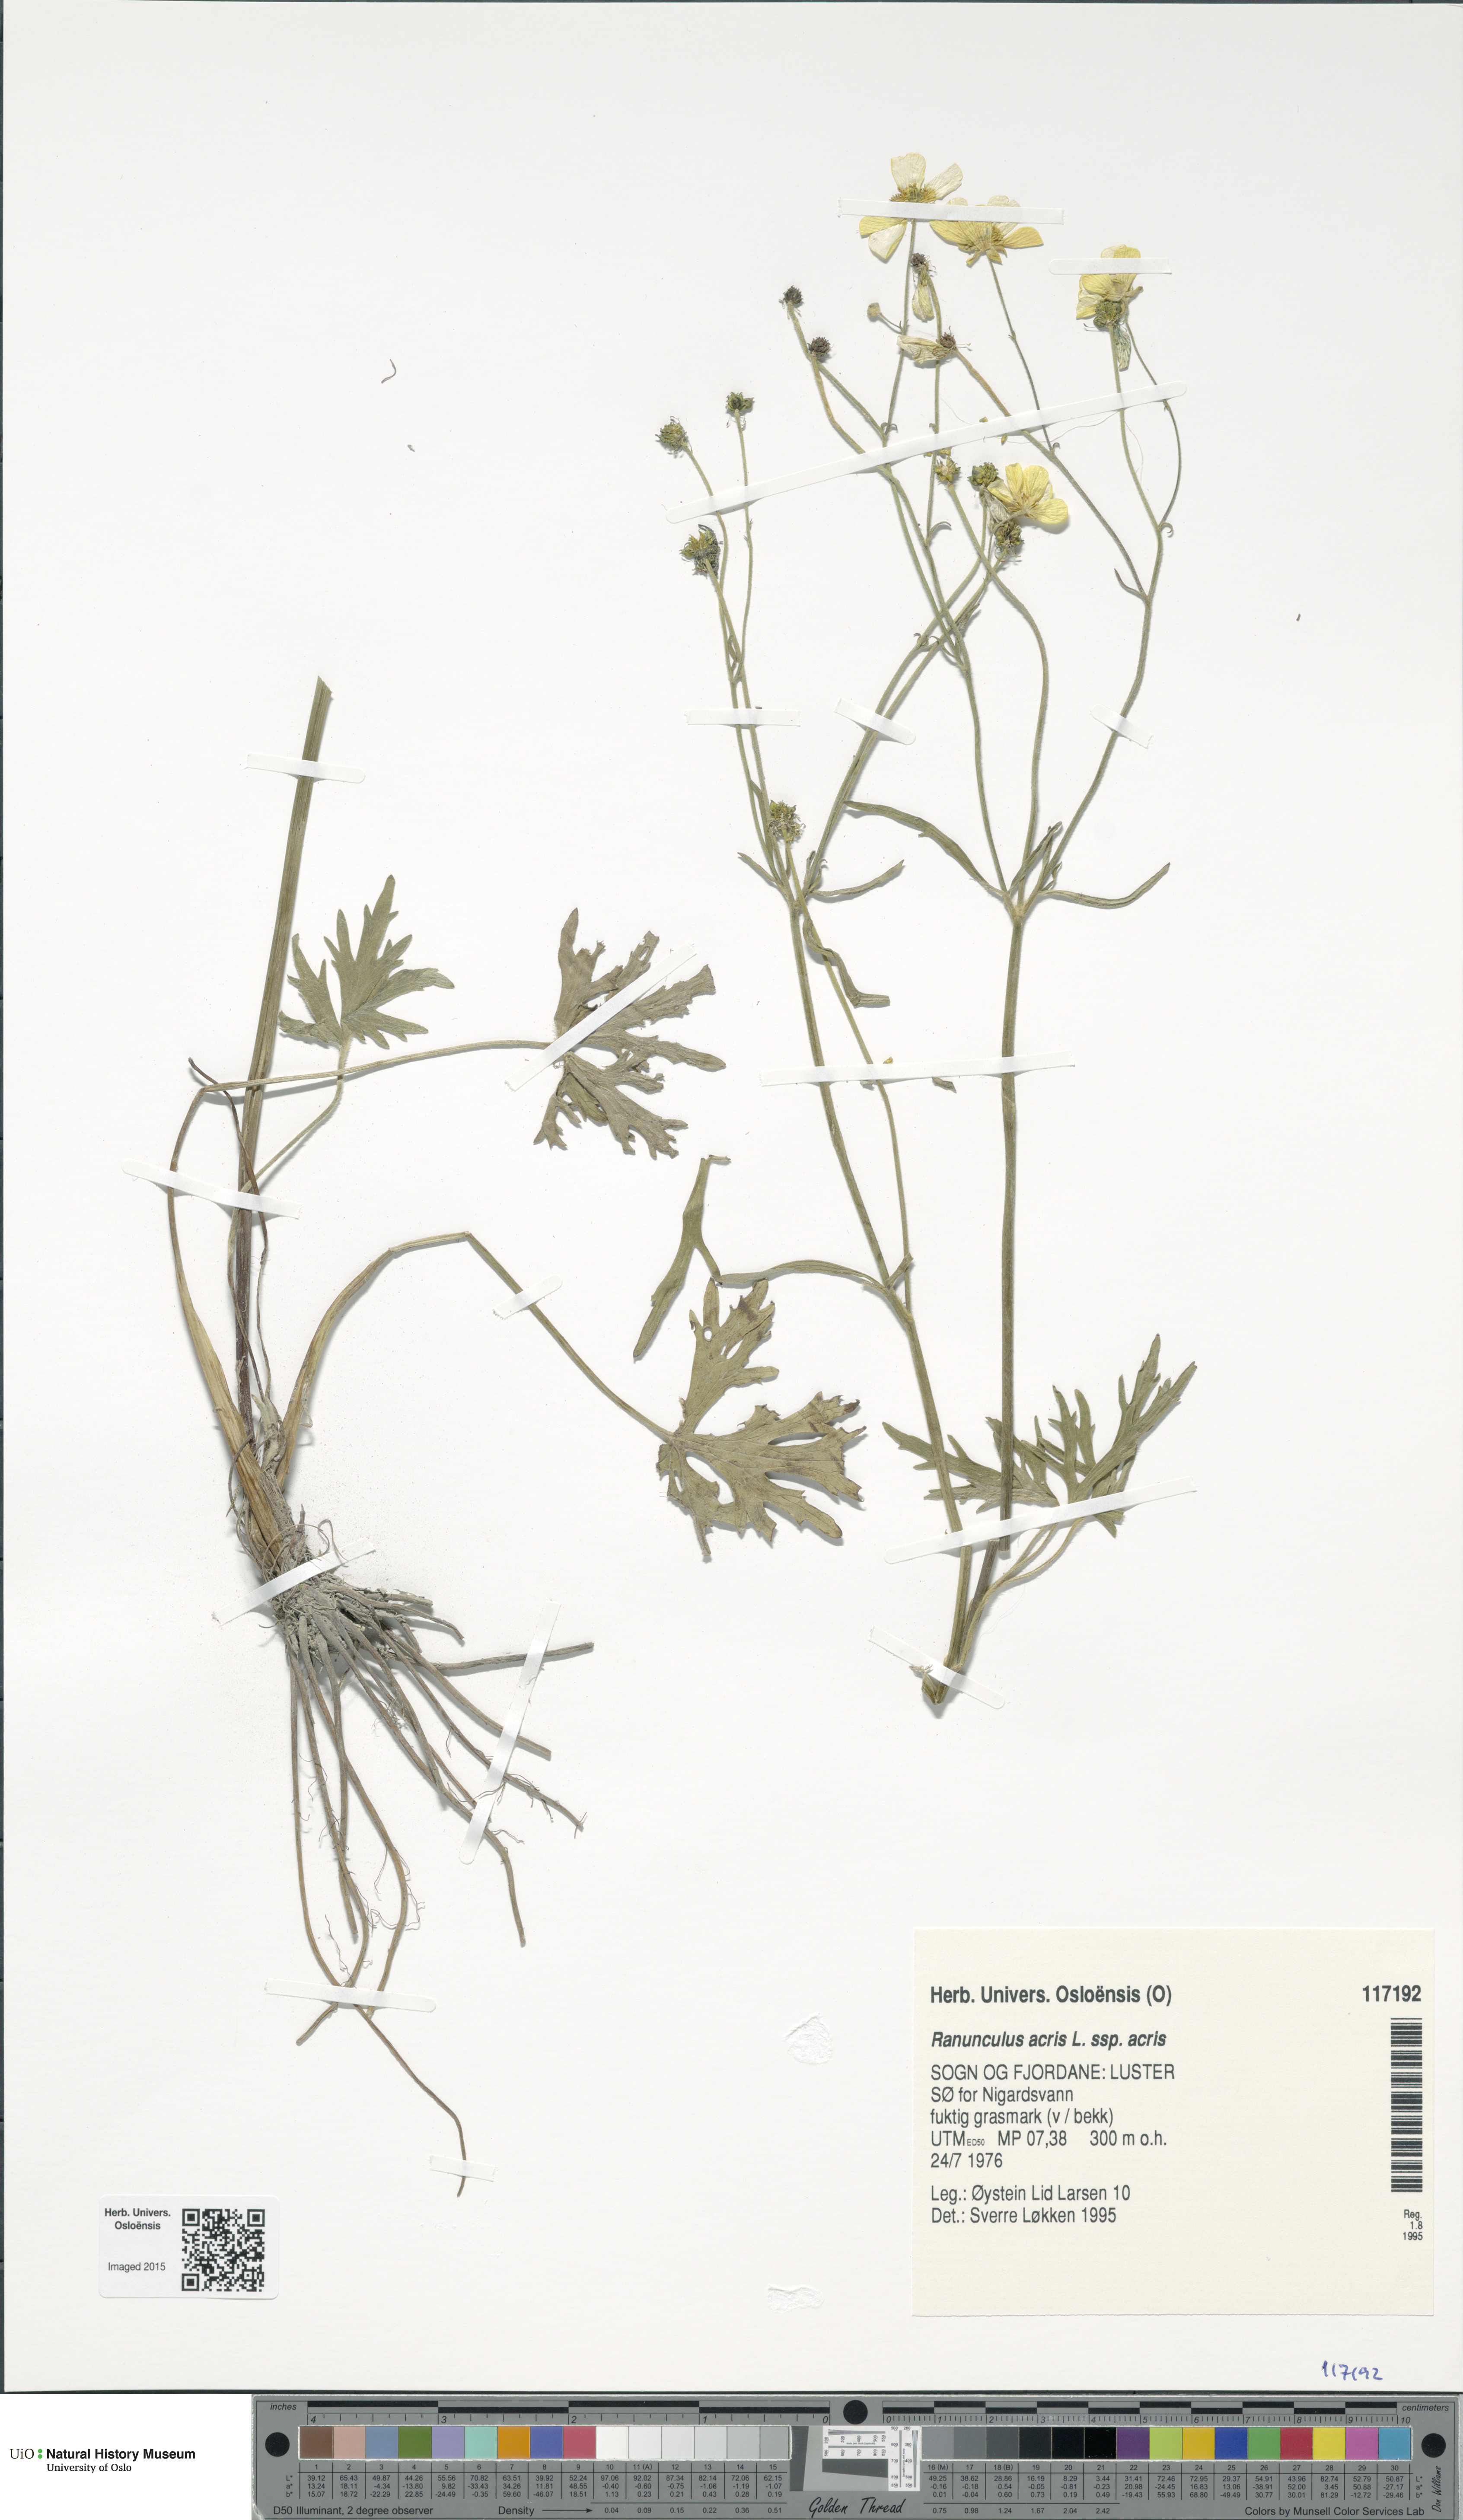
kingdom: Plantae
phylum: Tracheophyta
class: Magnoliopsida
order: Ranunculales
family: Ranunculaceae
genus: Ranunculus
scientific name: Ranunculus acris
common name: Meadow buttercup
